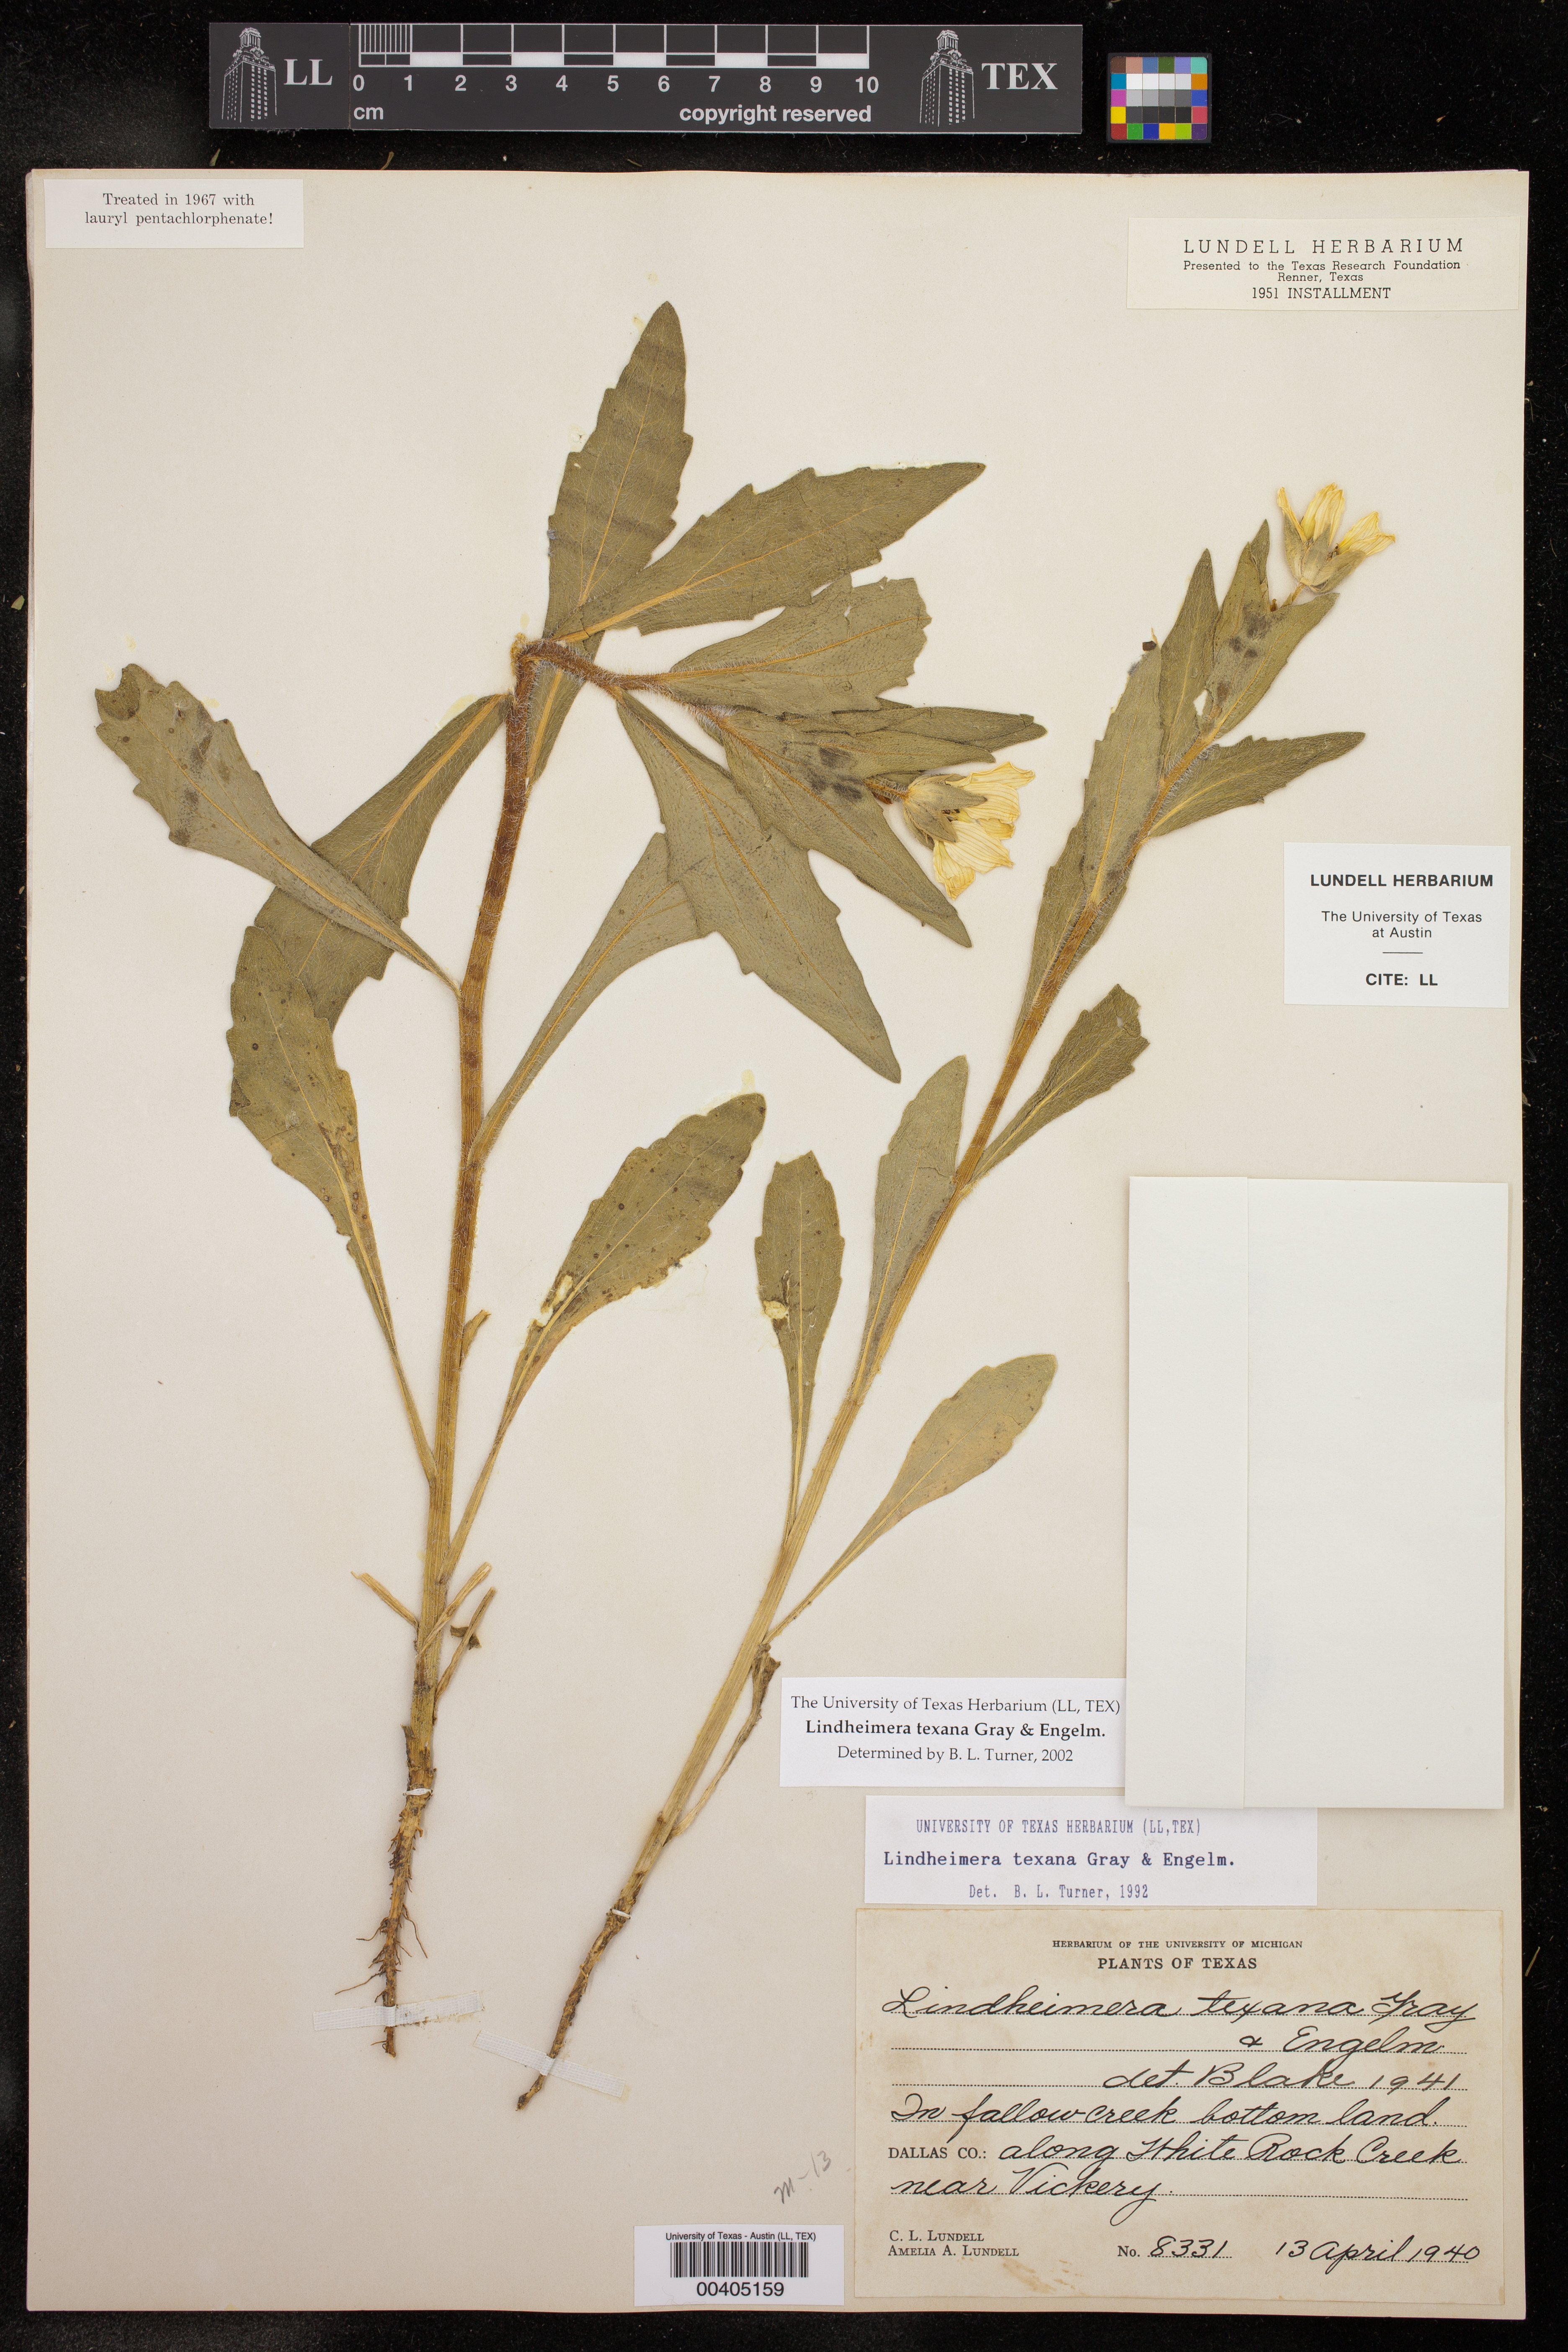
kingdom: Plantae
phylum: Tracheophyta
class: Magnoliopsida
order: Asterales
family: Asteraceae
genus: Lindheimera
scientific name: Lindheimera texana
